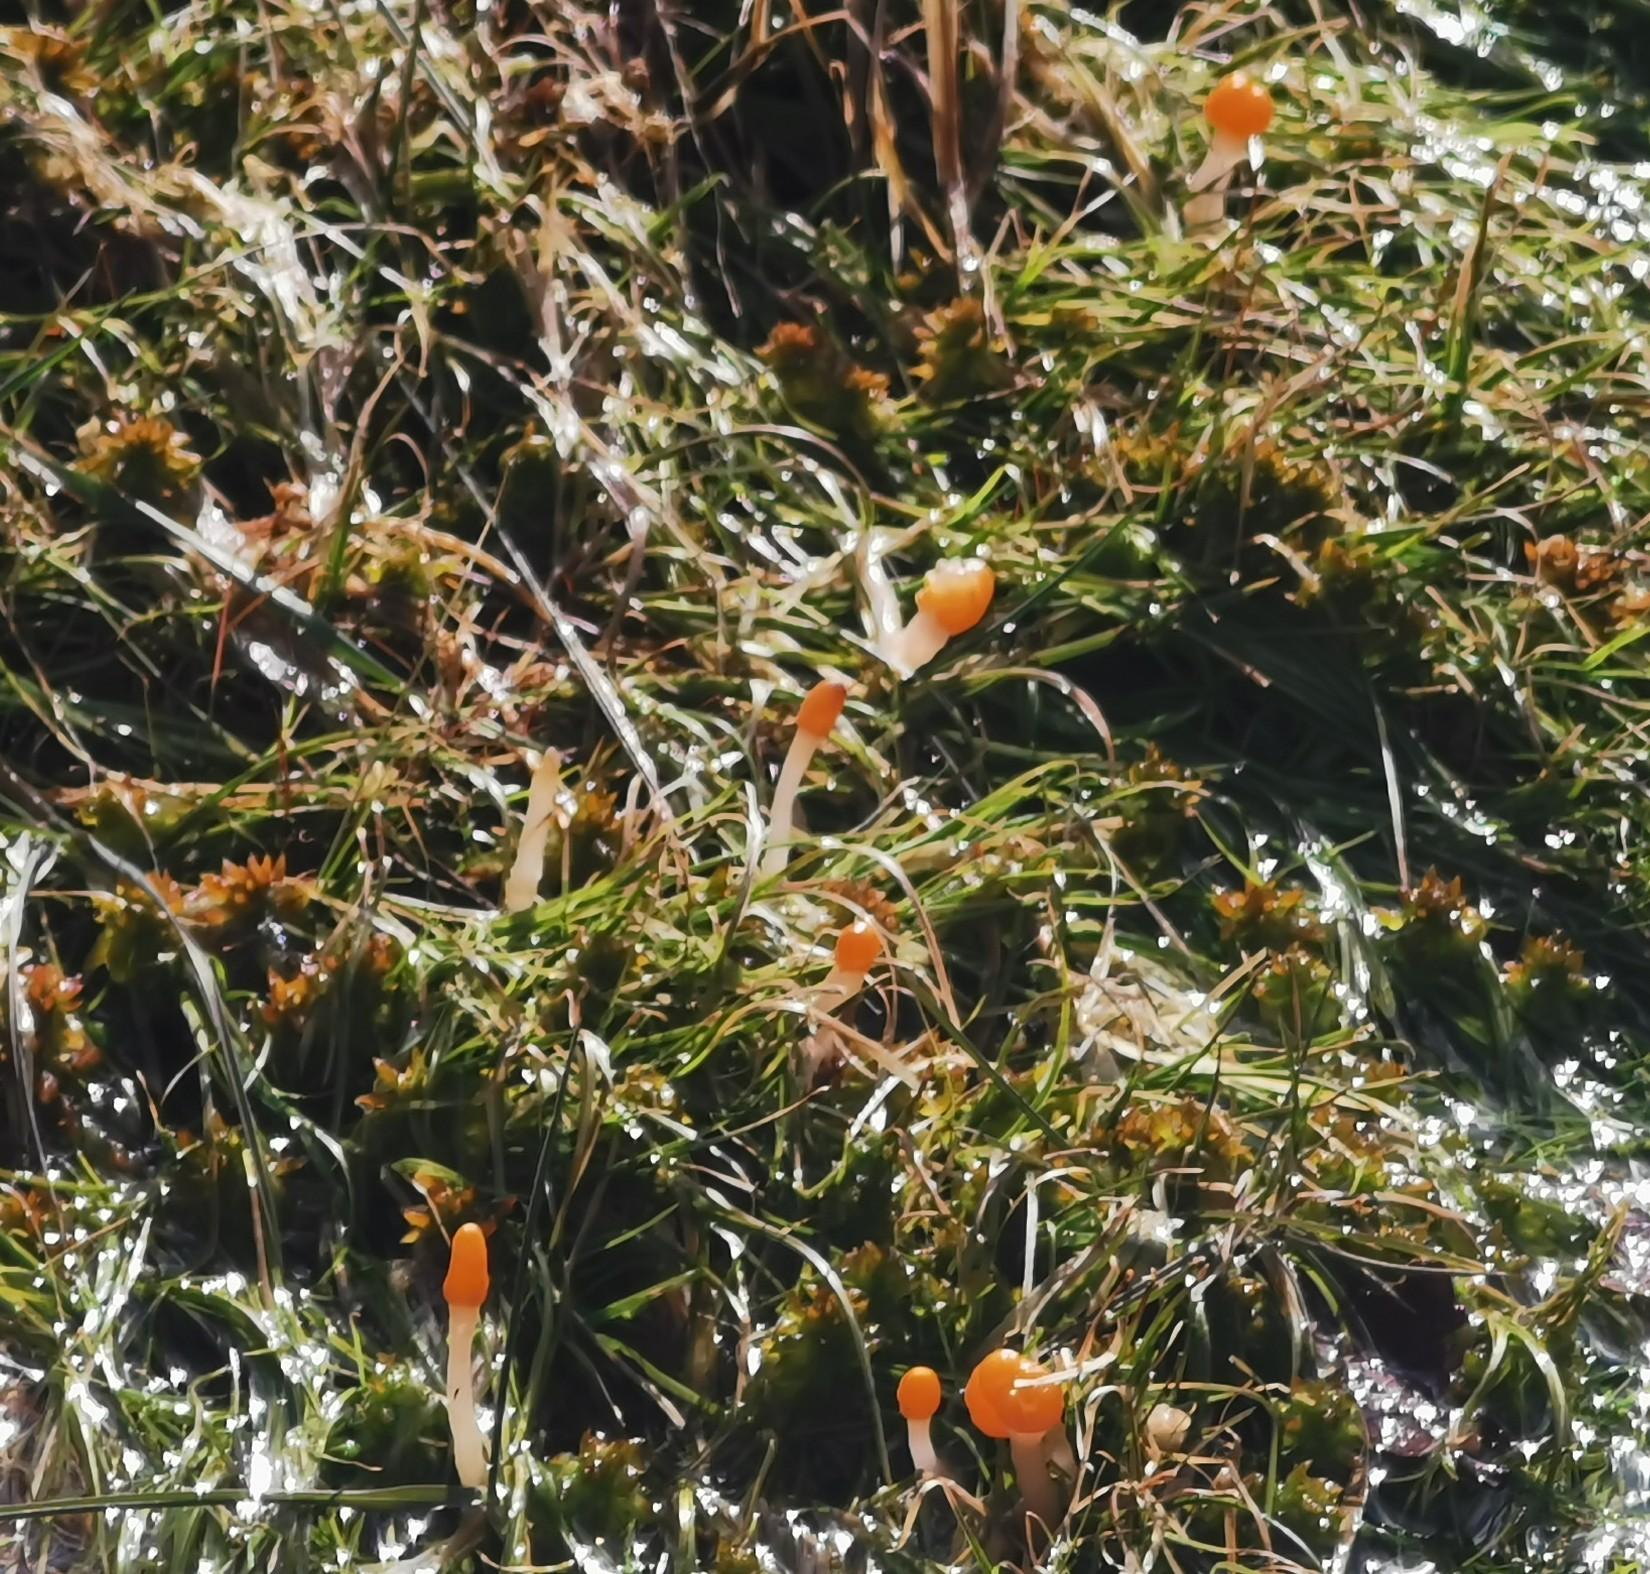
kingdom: Fungi
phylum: Ascomycota
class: Leotiomycetes
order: Helotiales
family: Cenangiaceae
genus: Mitrula
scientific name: Mitrula paludosa
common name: gul nøkketunge
